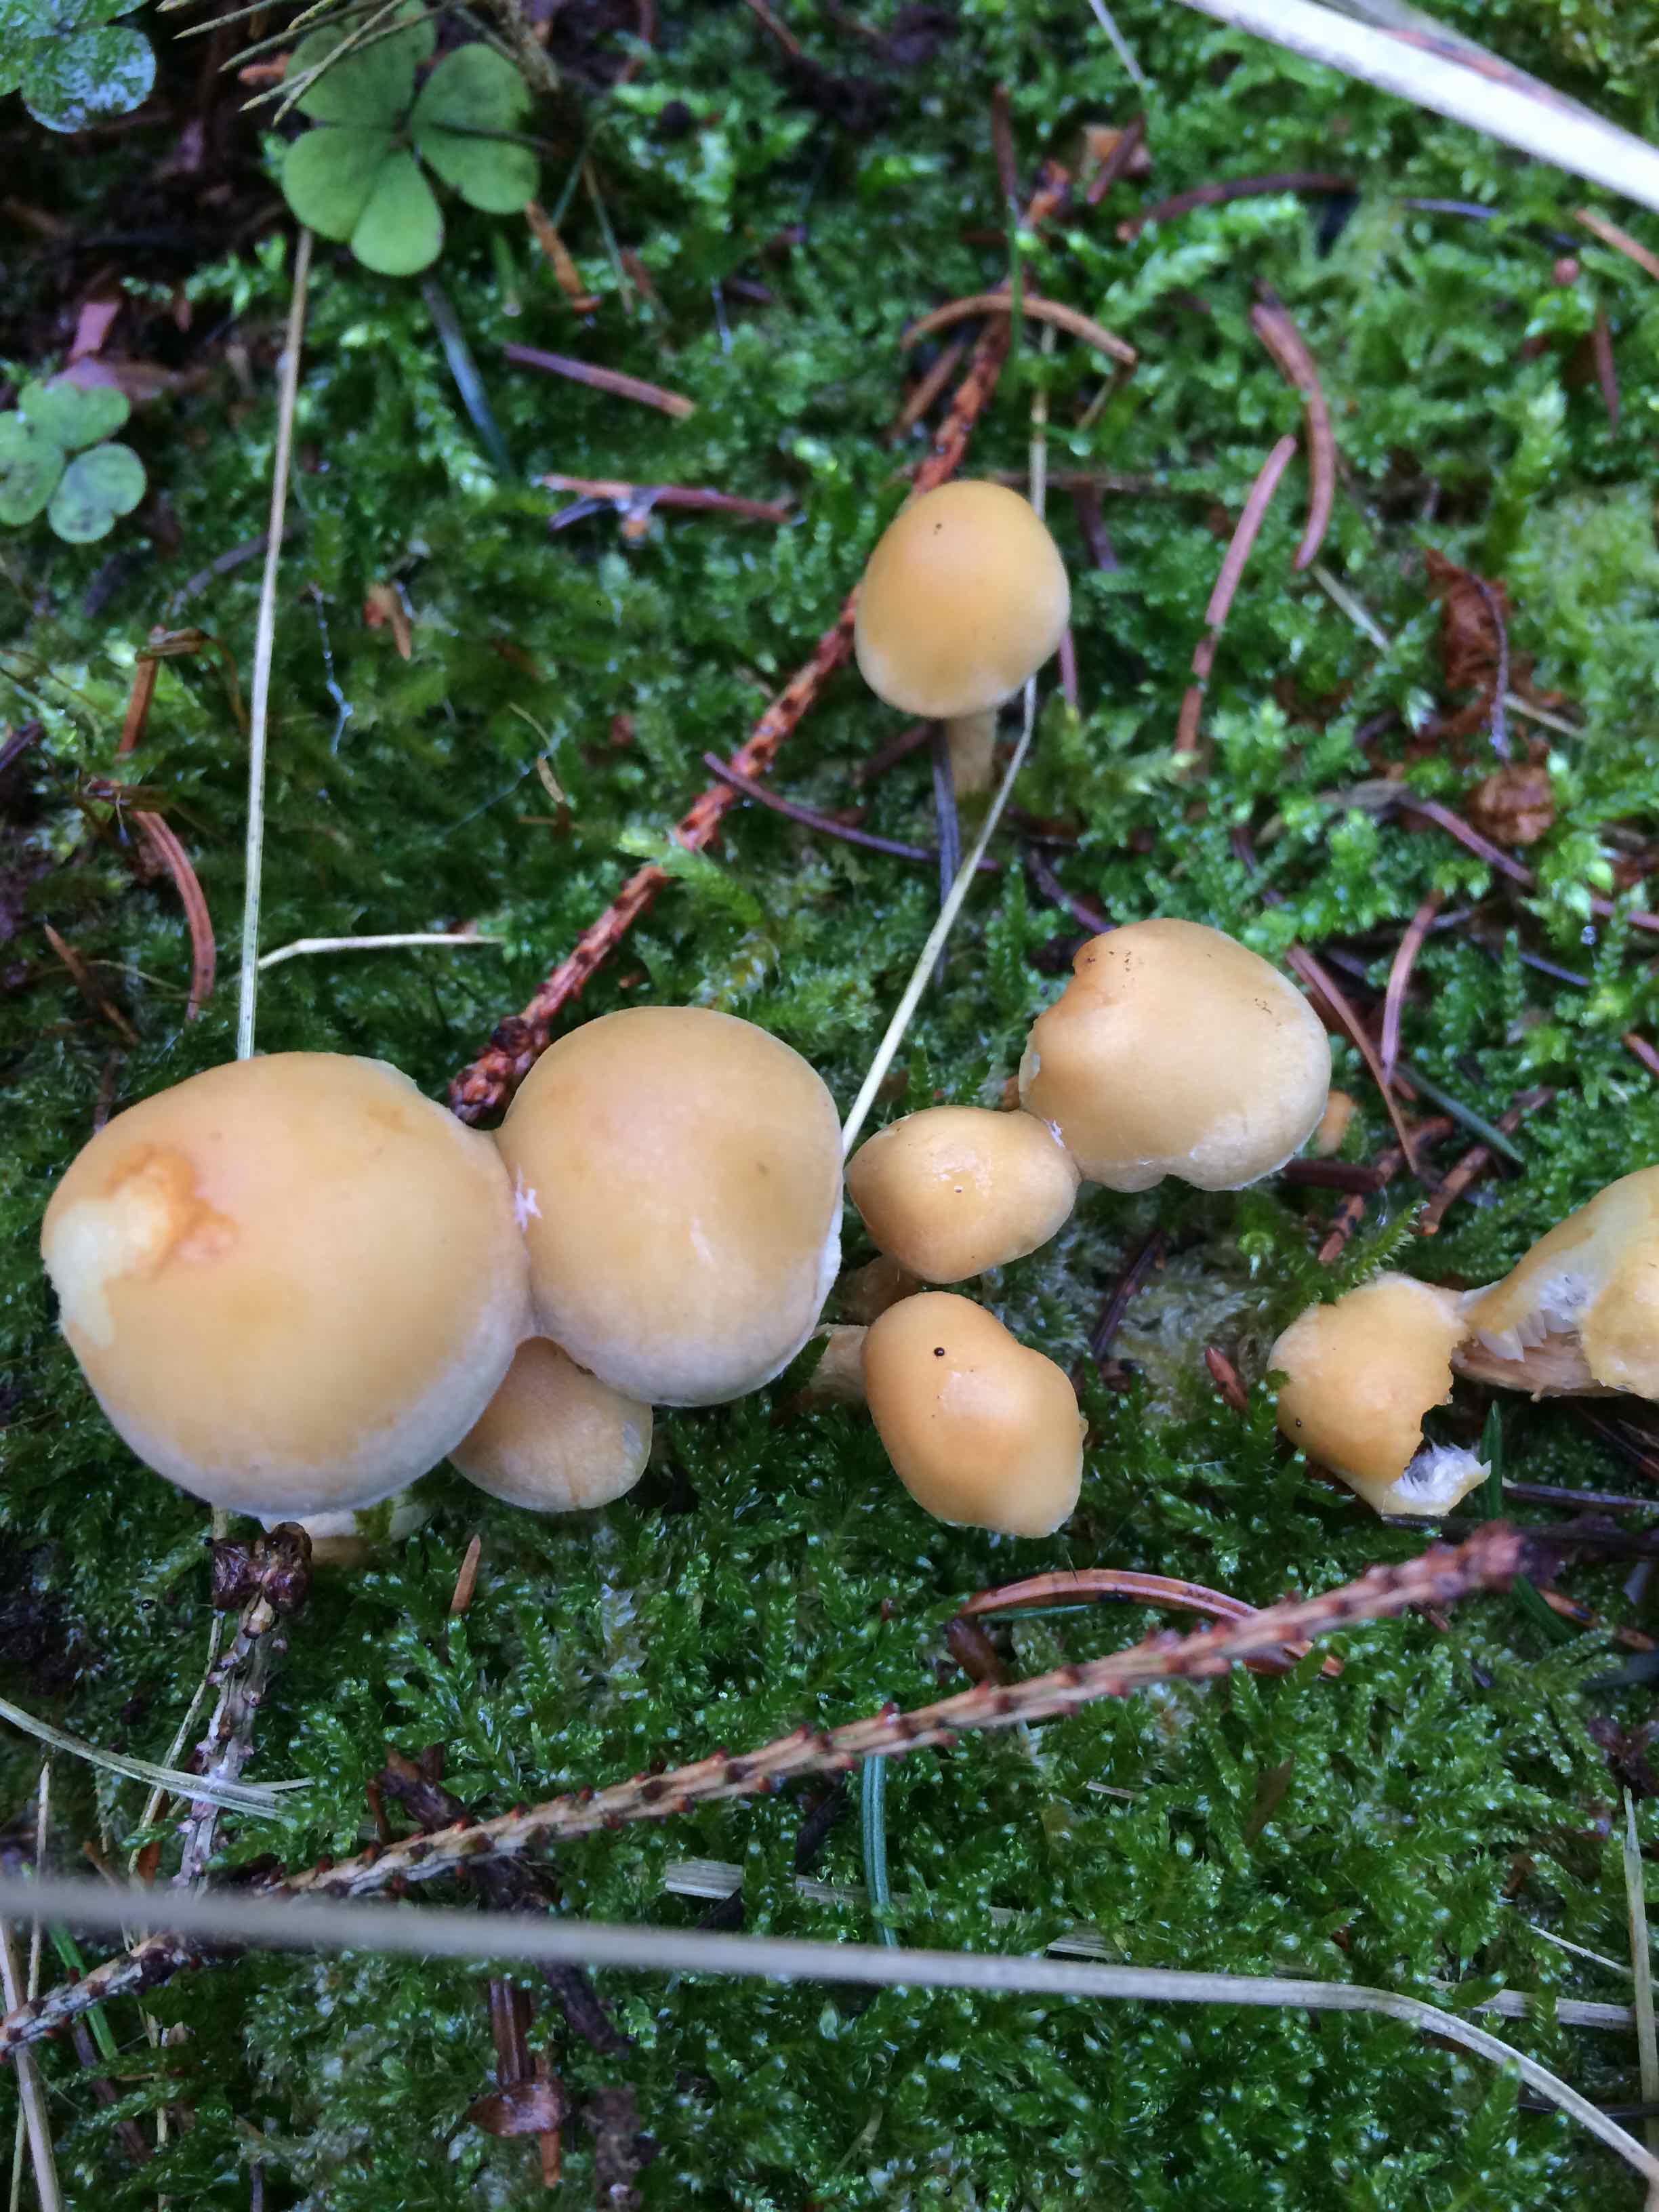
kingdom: Fungi
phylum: Basidiomycota
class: Agaricomycetes
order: Agaricales
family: Strophariaceae
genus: Hypholoma
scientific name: Hypholoma capnoides
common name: gran-svovlhat
